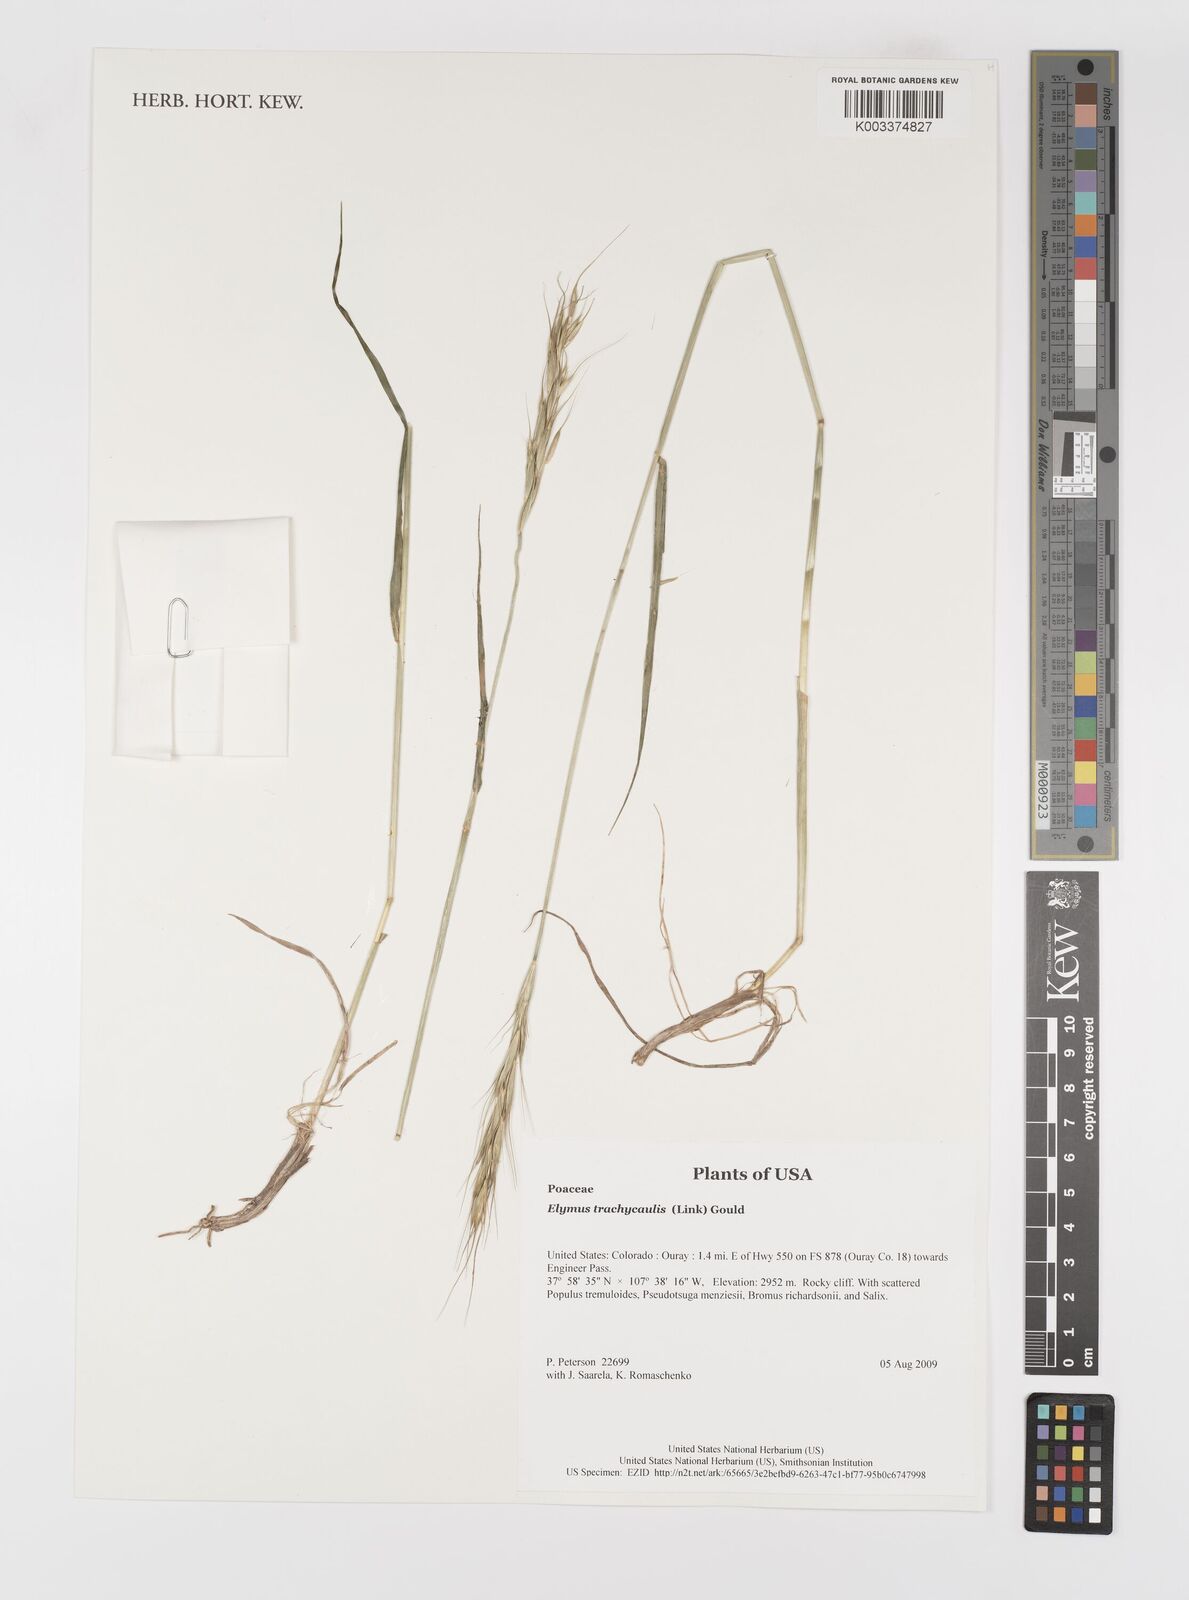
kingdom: Plantae
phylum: Tracheophyta
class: Liliopsida
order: Poales
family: Poaceae
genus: Elymus
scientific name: Elymus violaceus
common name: Arctic wheatgrass
